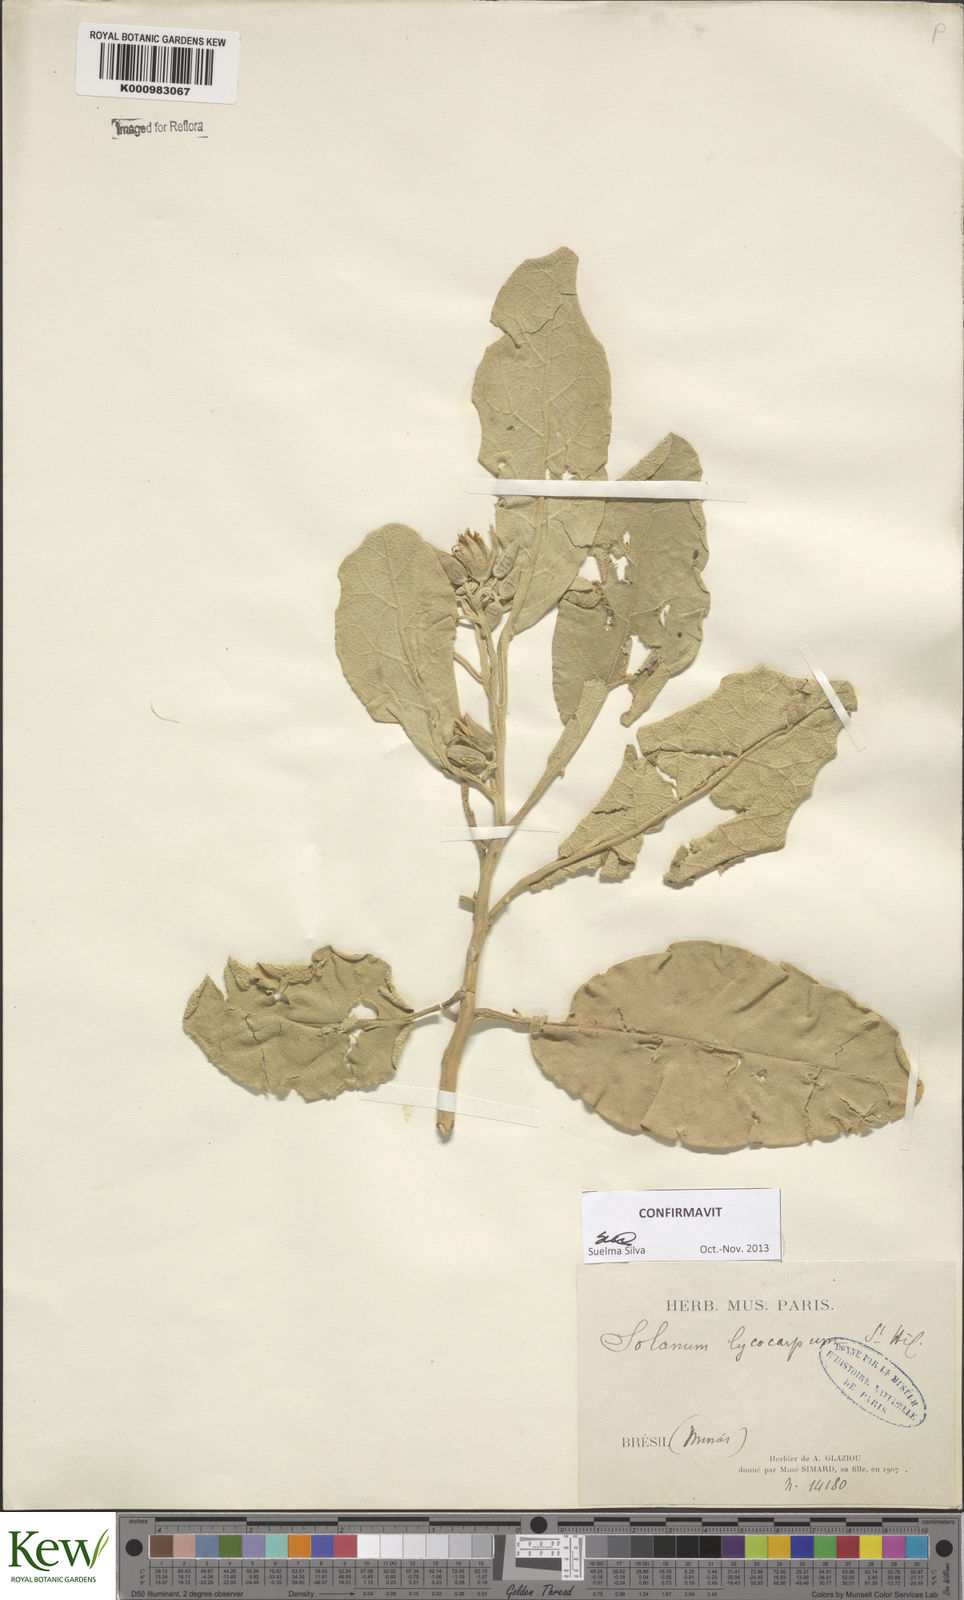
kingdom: Plantae
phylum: Tracheophyta
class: Magnoliopsida
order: Solanales
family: Solanaceae
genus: Solanum
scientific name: Solanum lycocarpum
